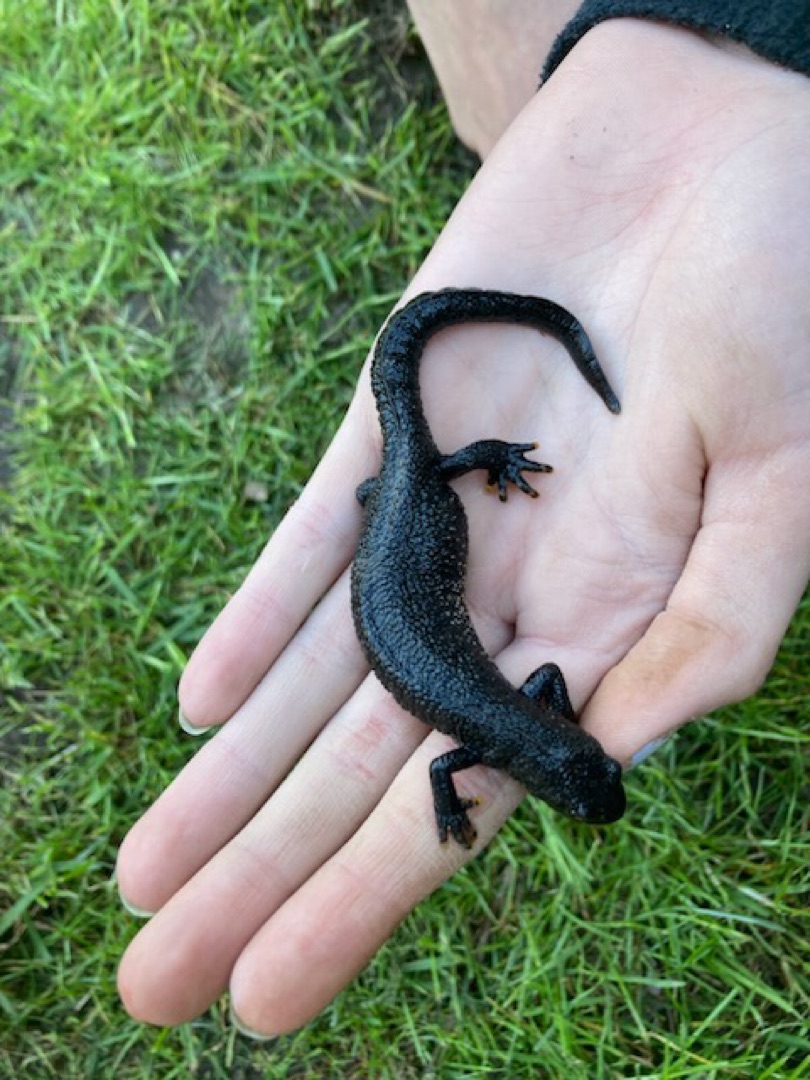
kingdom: Animalia
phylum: Chordata
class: Amphibia
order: Caudata
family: Salamandridae
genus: Triturus
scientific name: Triturus cristatus
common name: Stor vandsalamander
